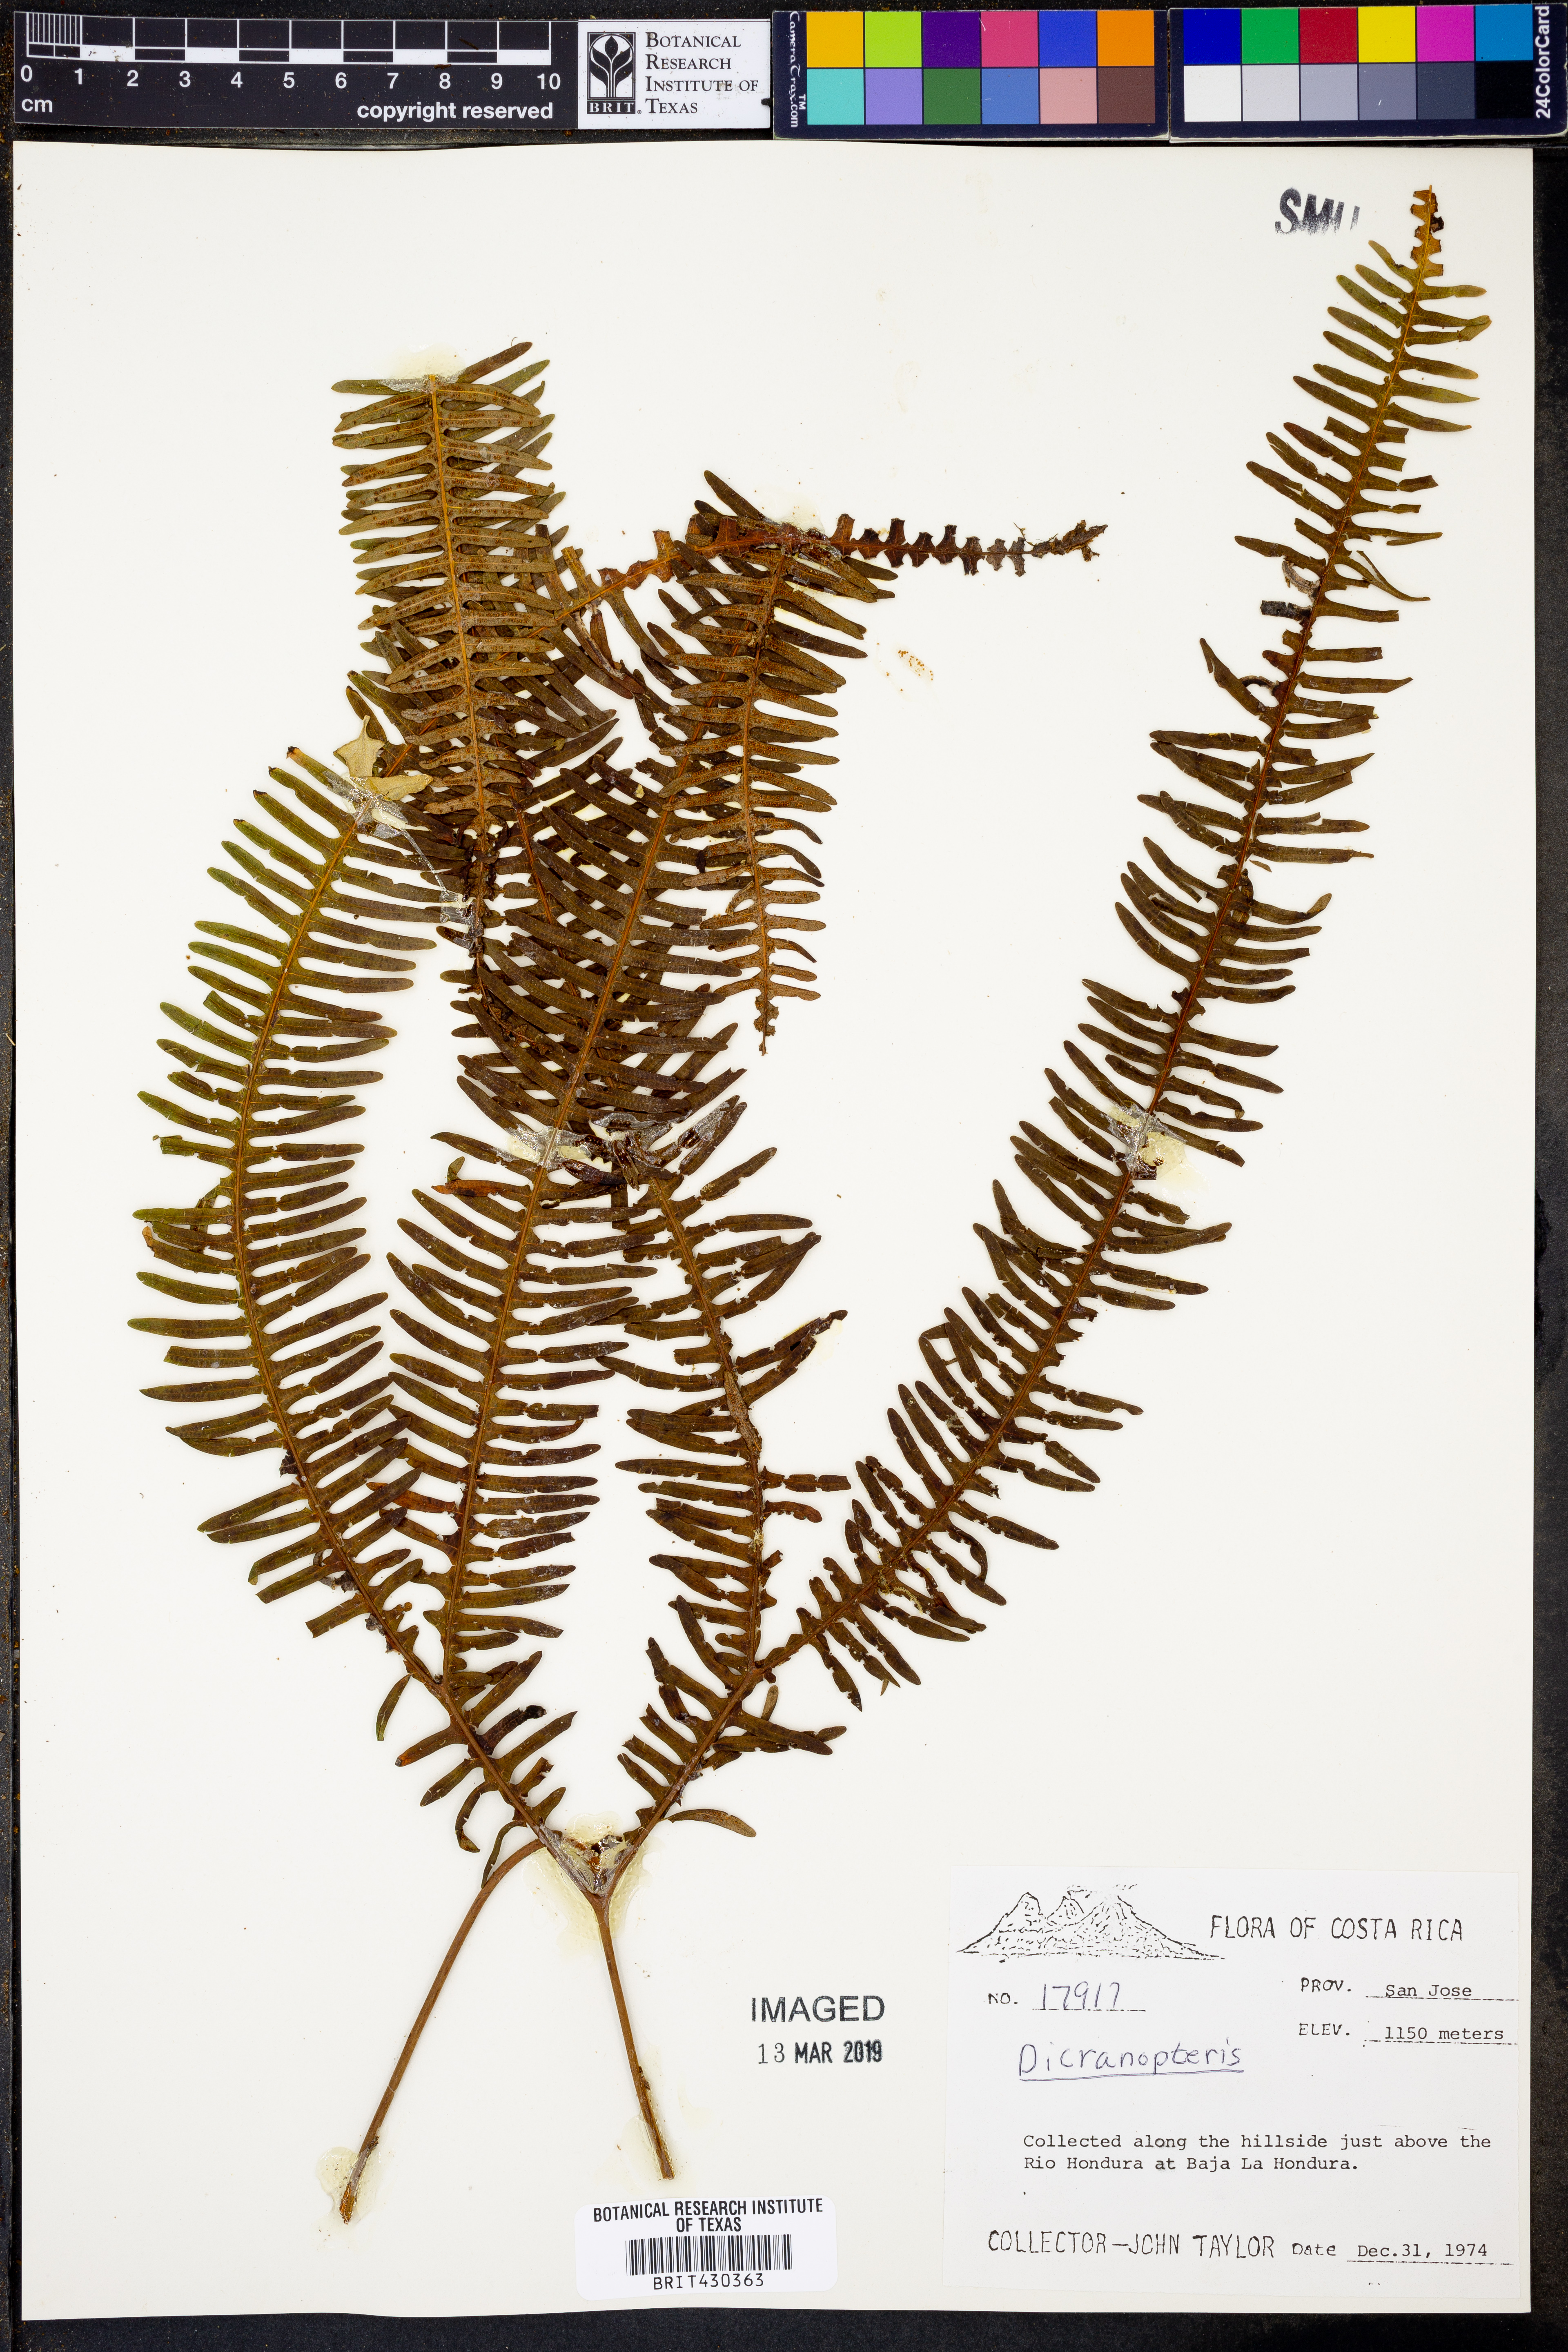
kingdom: Plantae
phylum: Tracheophyta
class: Polypodiopsida
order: Gleicheniales
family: Gleicheniaceae
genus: Dicranopteris
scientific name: Dicranopteris
